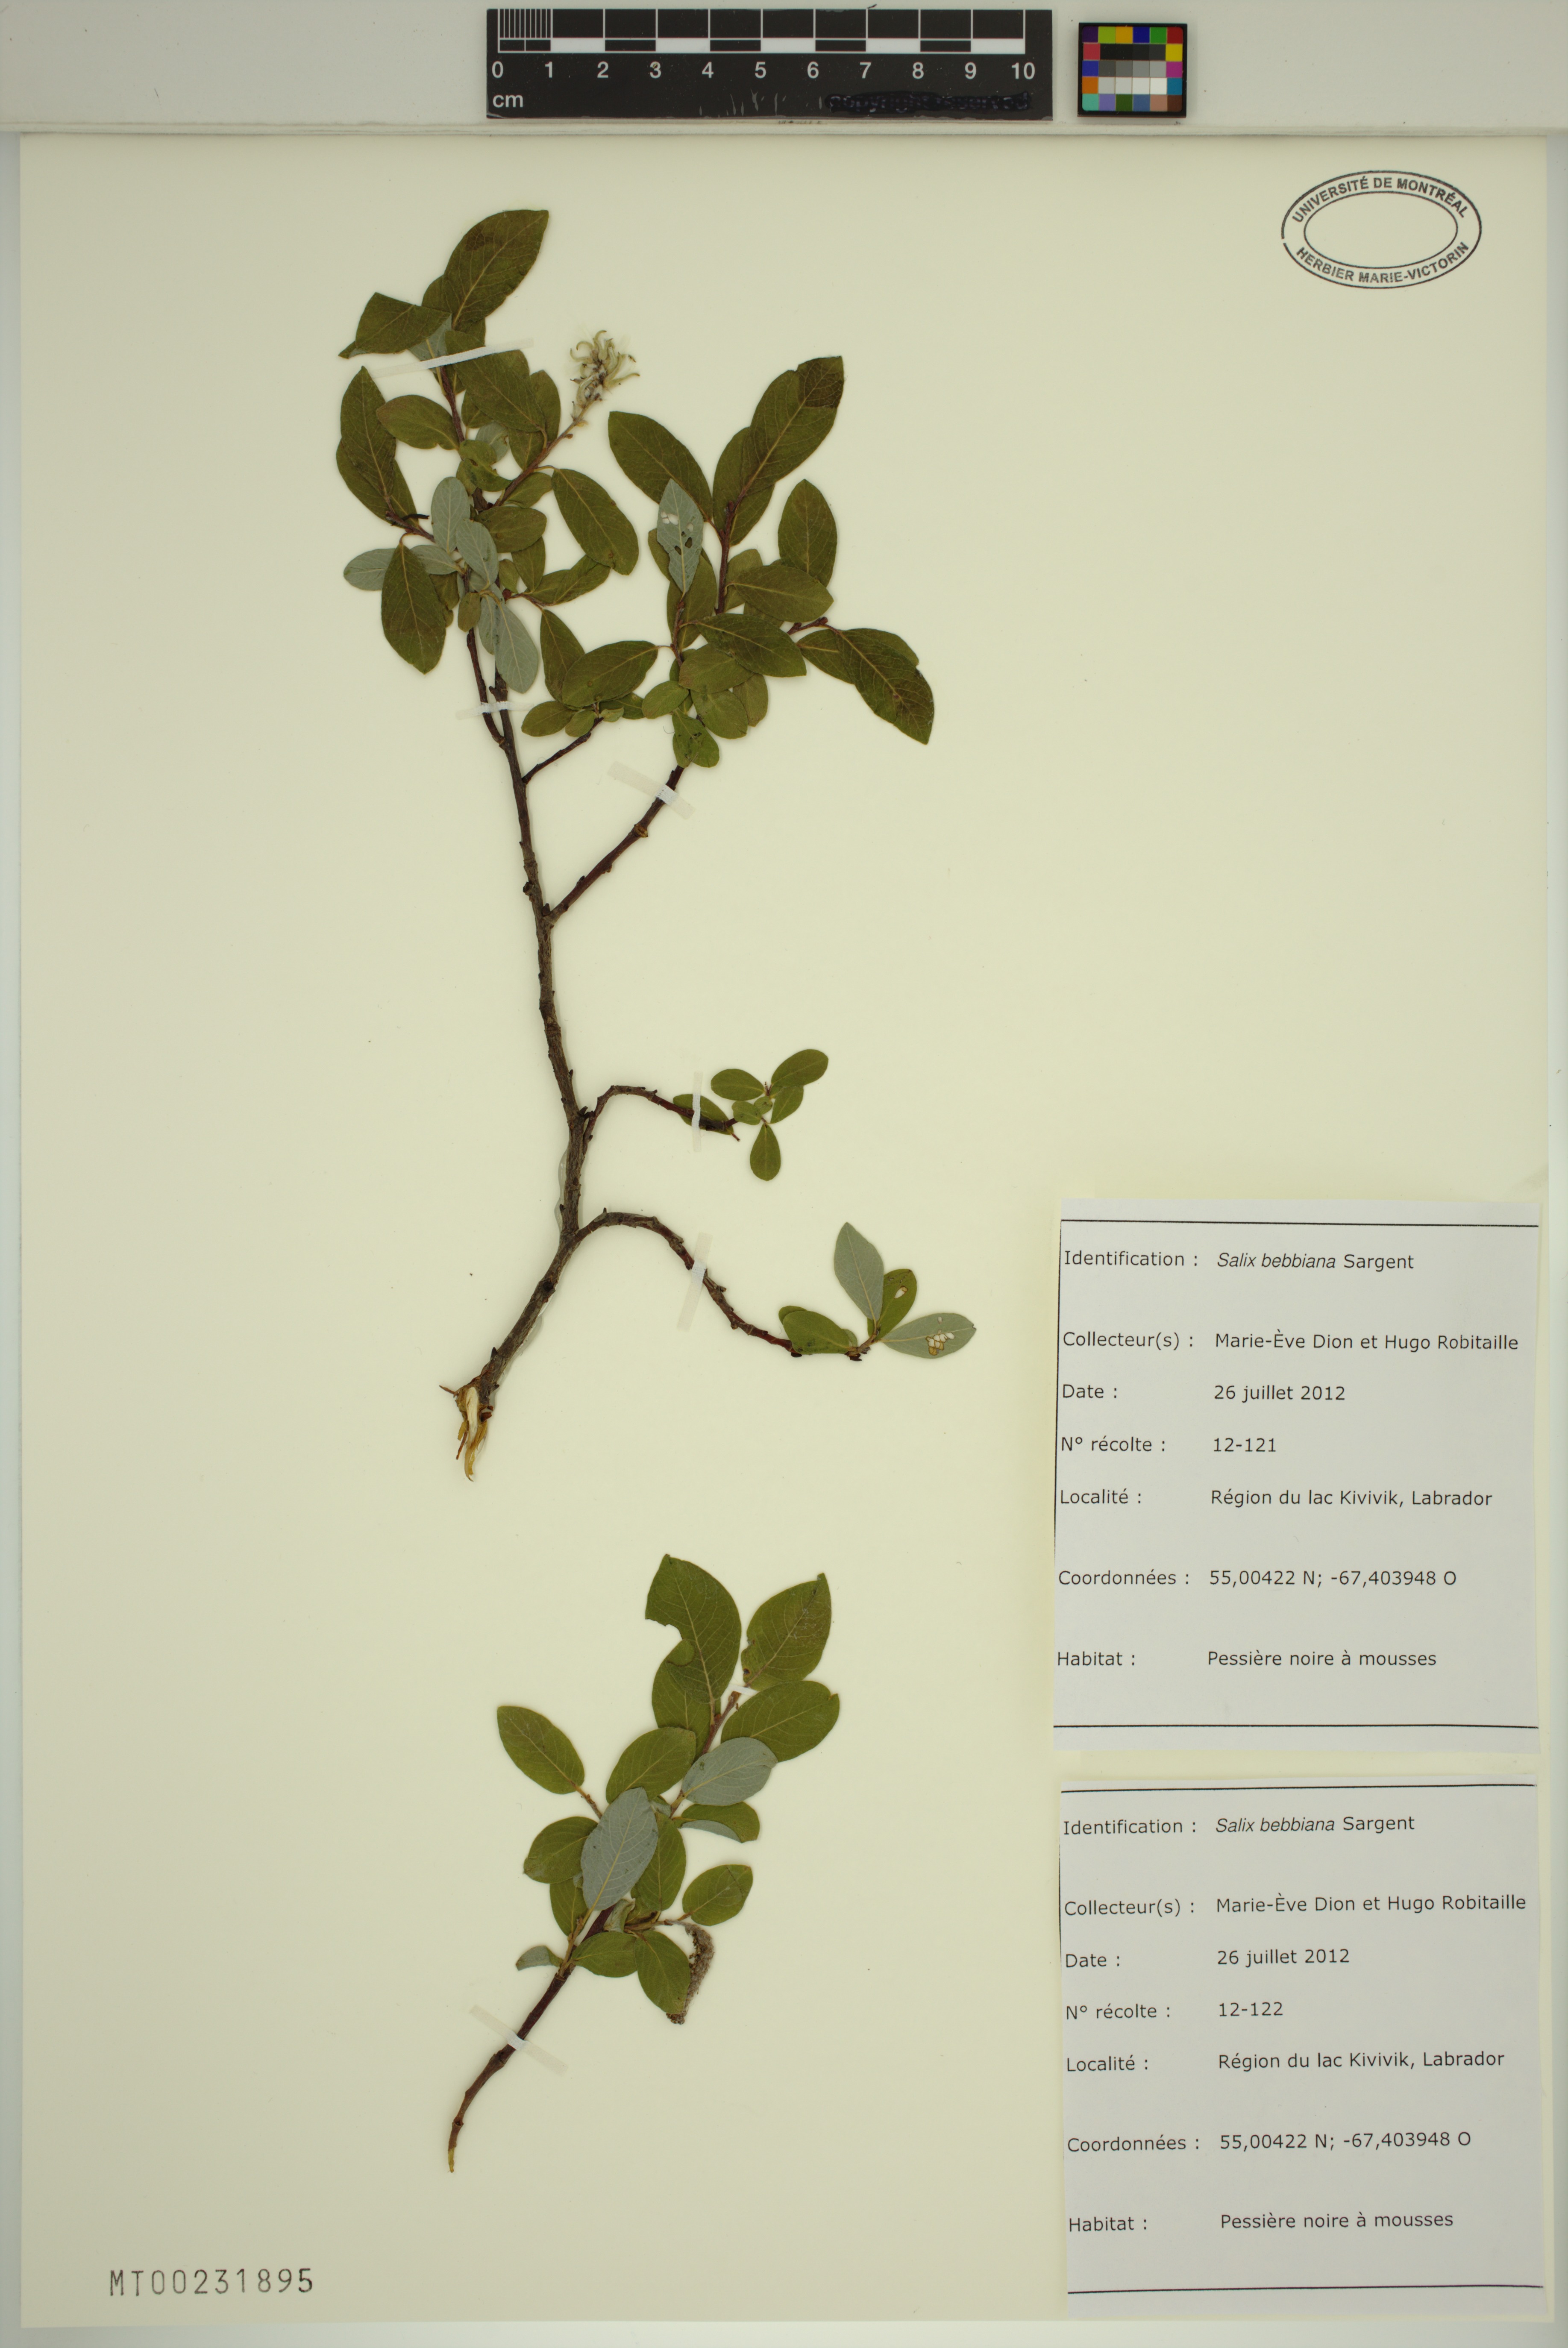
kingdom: Plantae
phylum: Tracheophyta
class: Magnoliopsida
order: Malpighiales
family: Salicaceae
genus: Salix
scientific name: Salix bebbiana
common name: Bebb's willow
